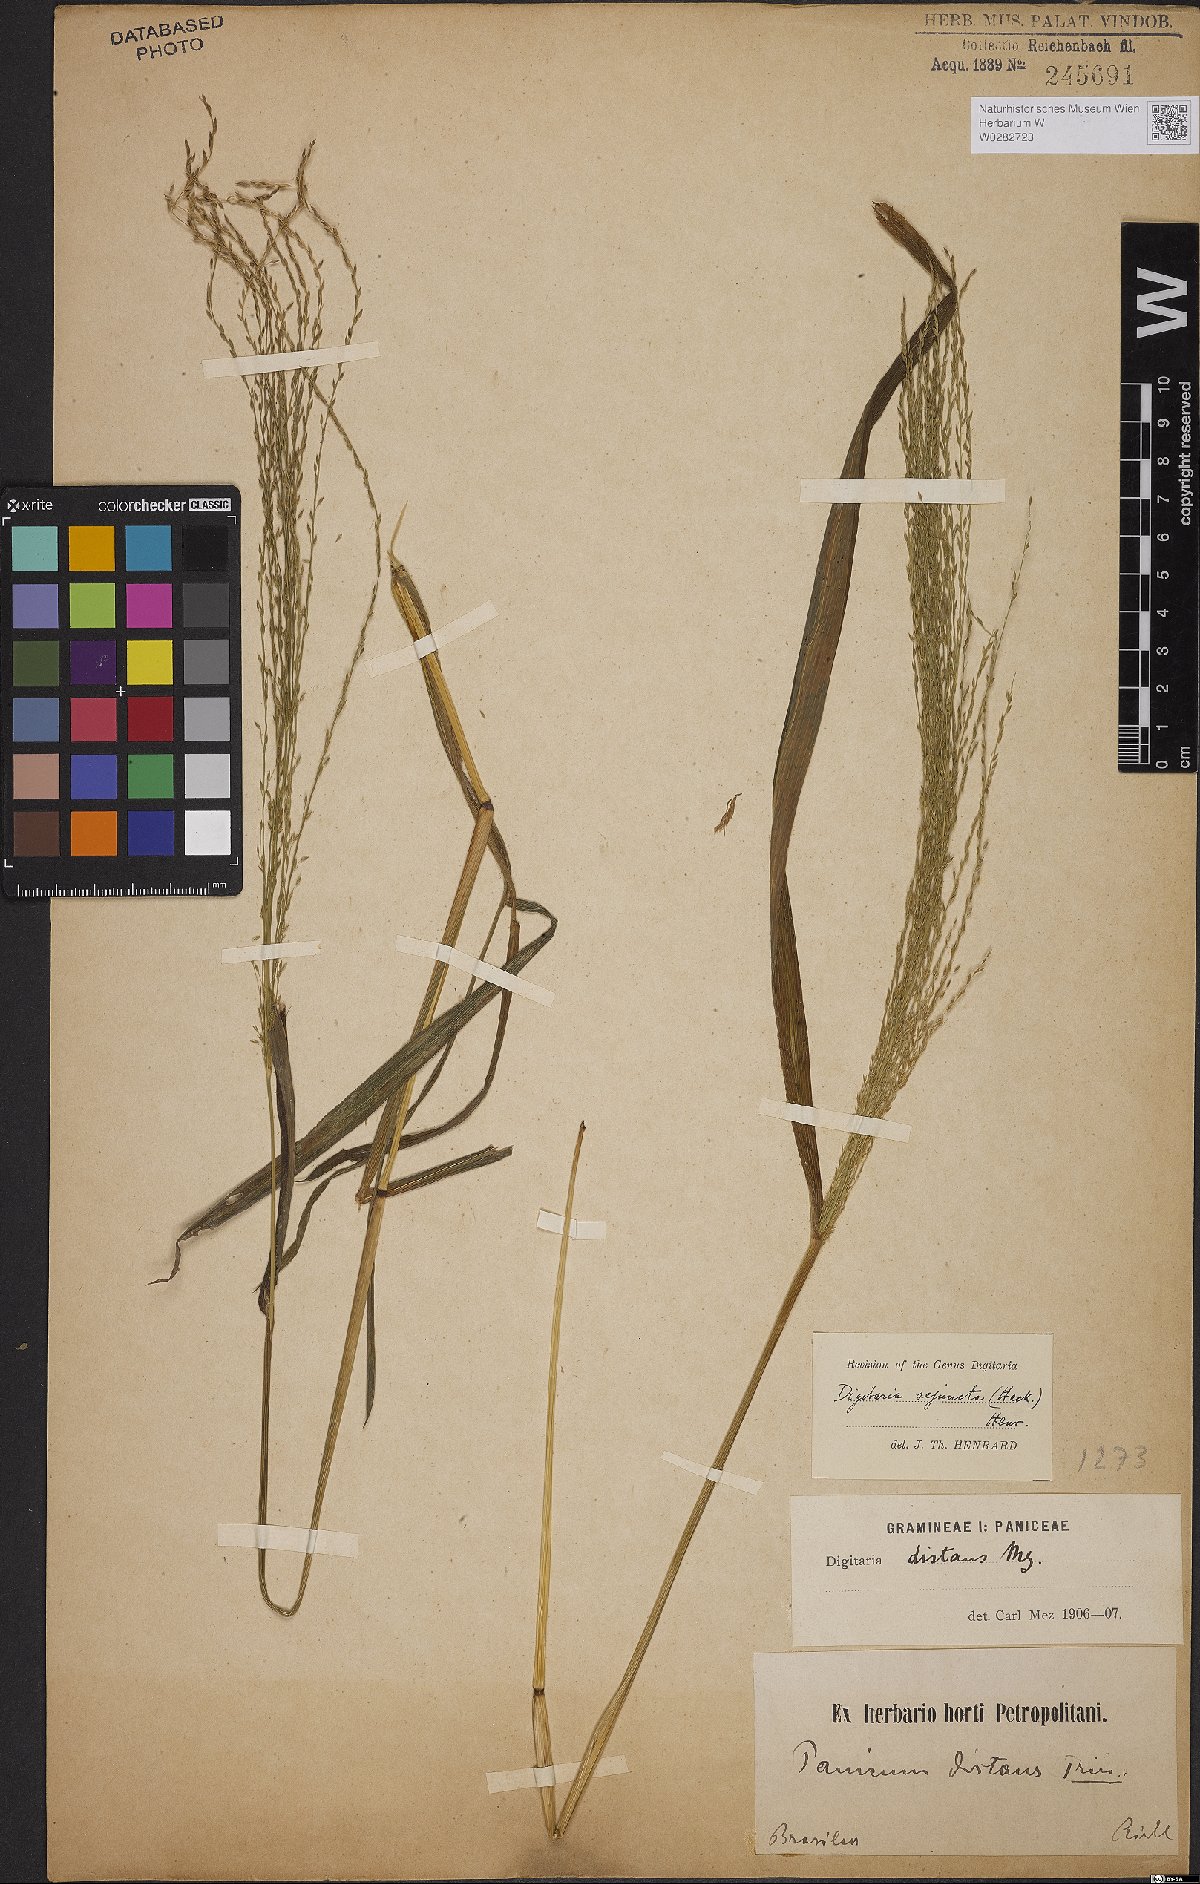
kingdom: Plantae
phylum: Tracheophyta
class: Liliopsida
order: Poales
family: Poaceae
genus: Digitaria
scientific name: Digitaria sejuncta
